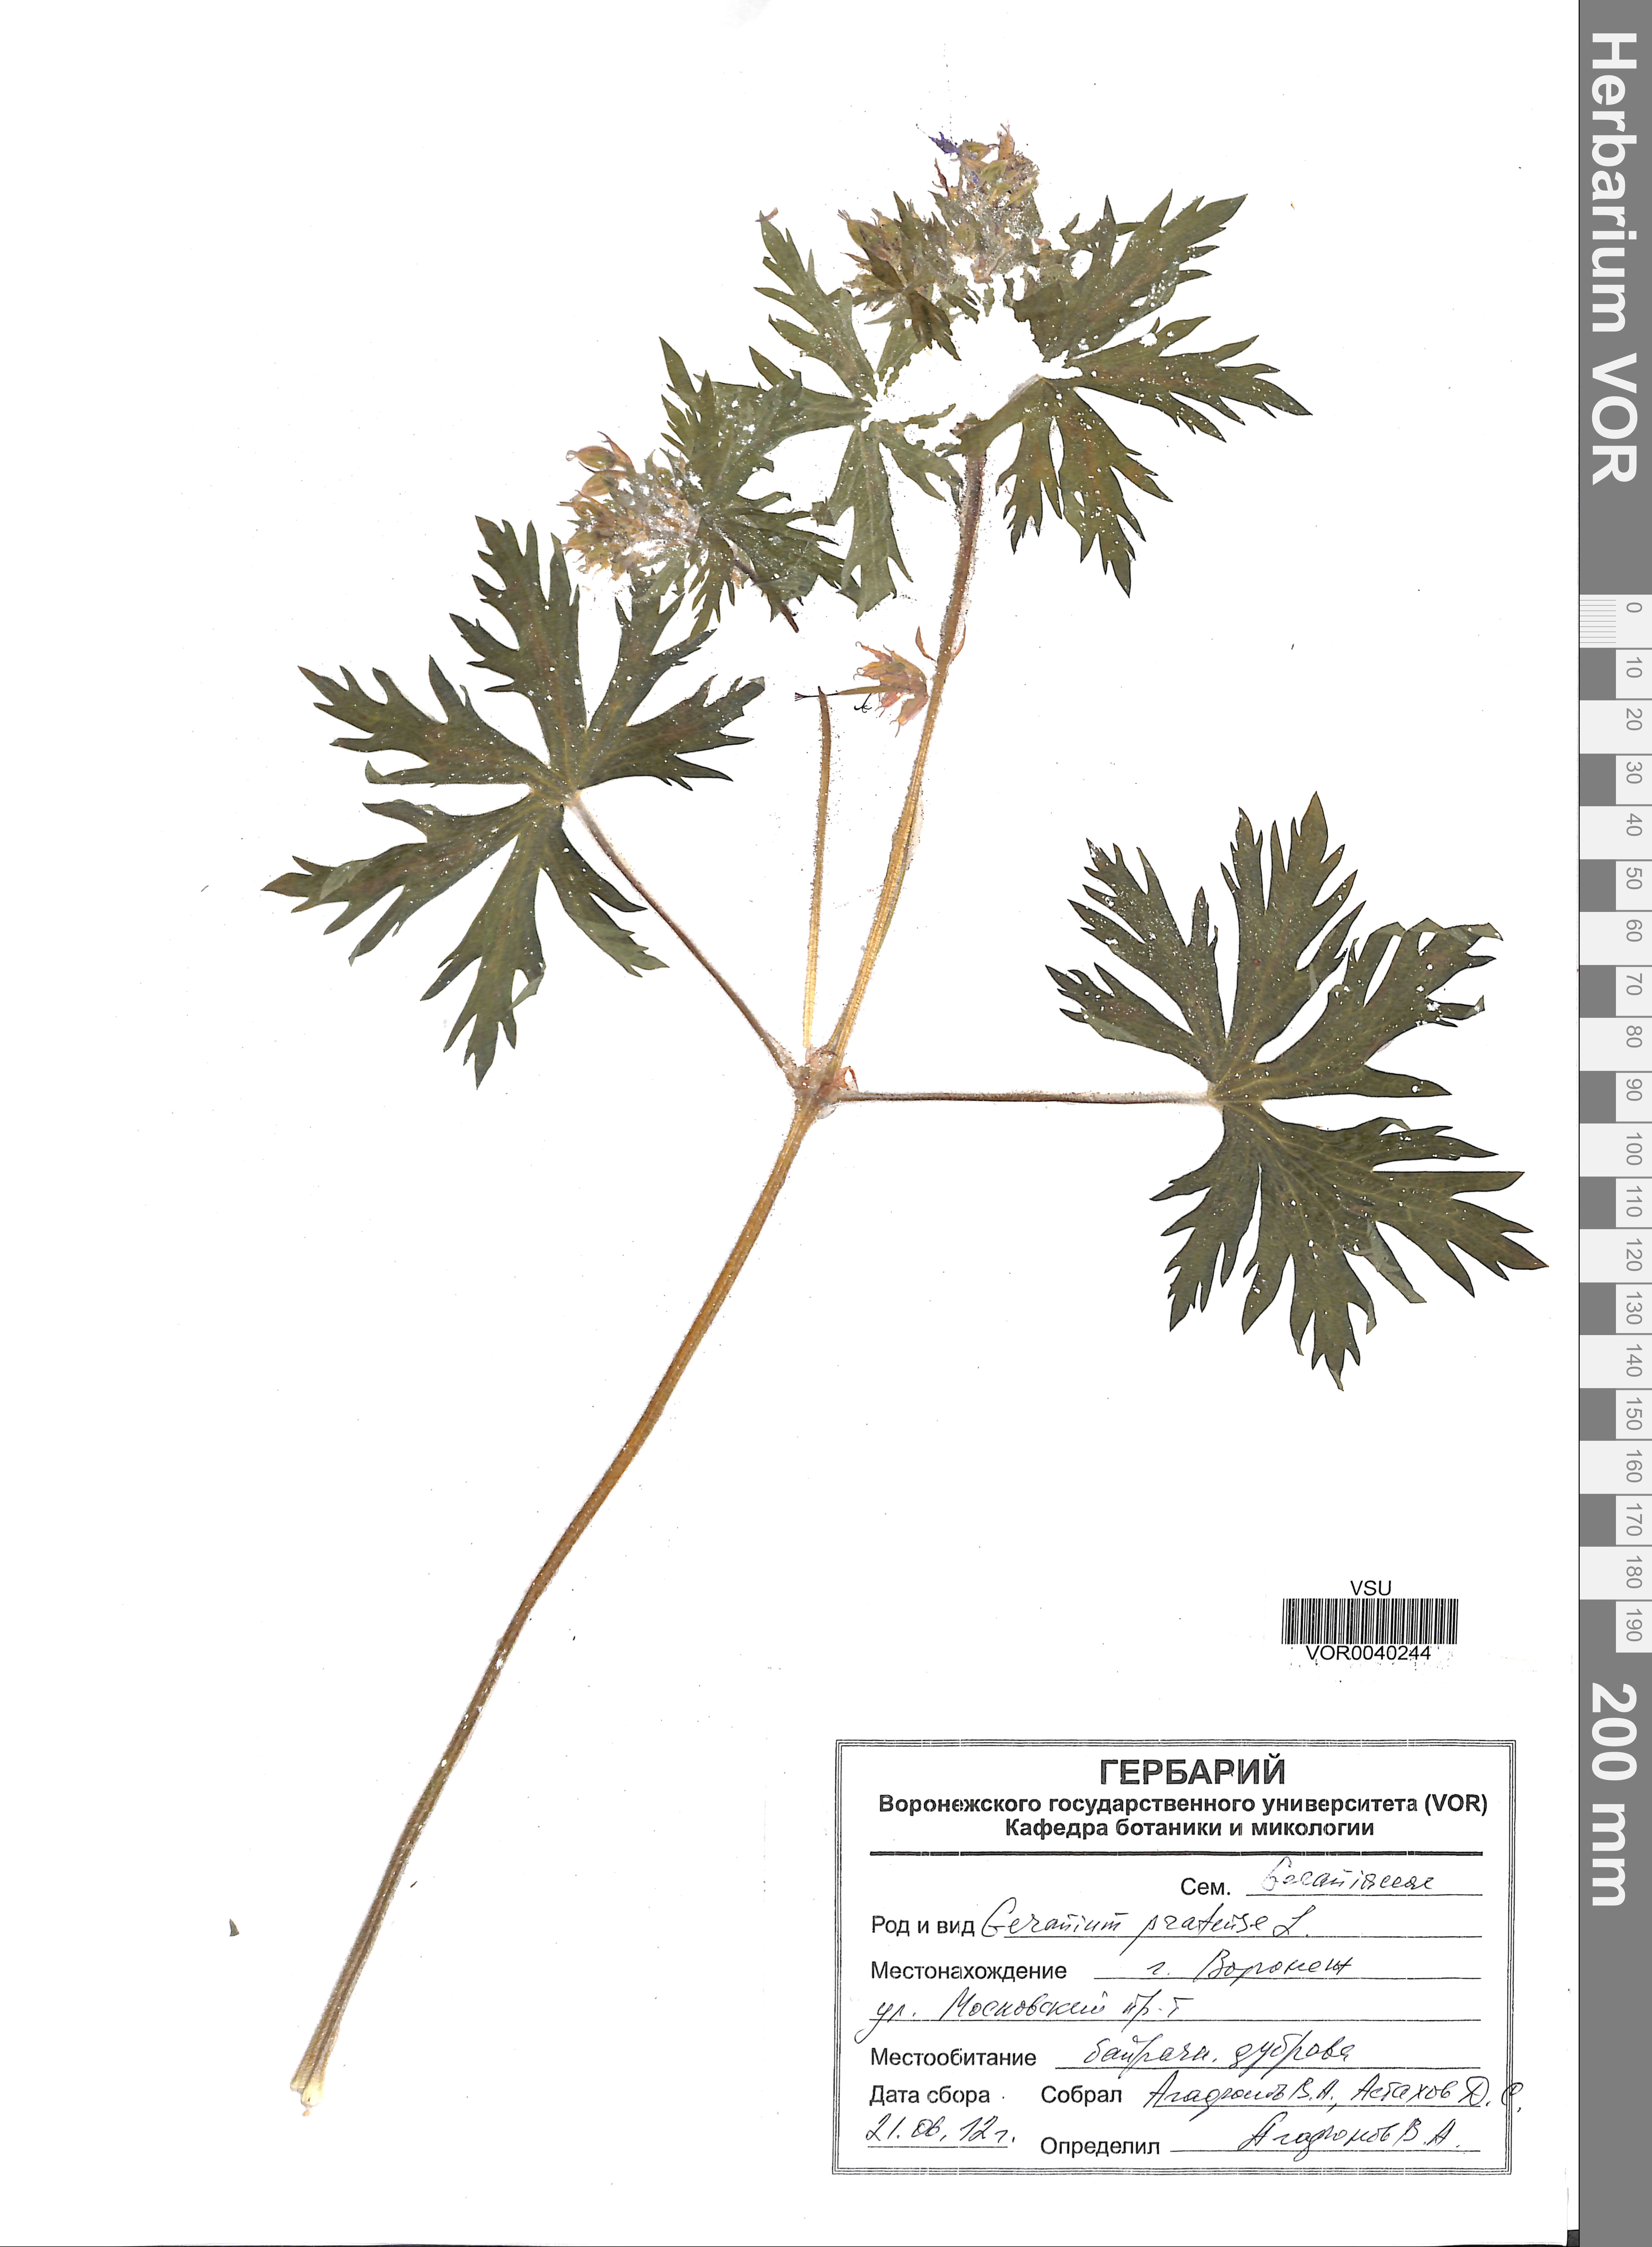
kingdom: Plantae
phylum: Tracheophyta
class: Magnoliopsida
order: Geraniales
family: Geraniaceae
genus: Geranium
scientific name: Geranium pratense
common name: Meadow crane's-bill
